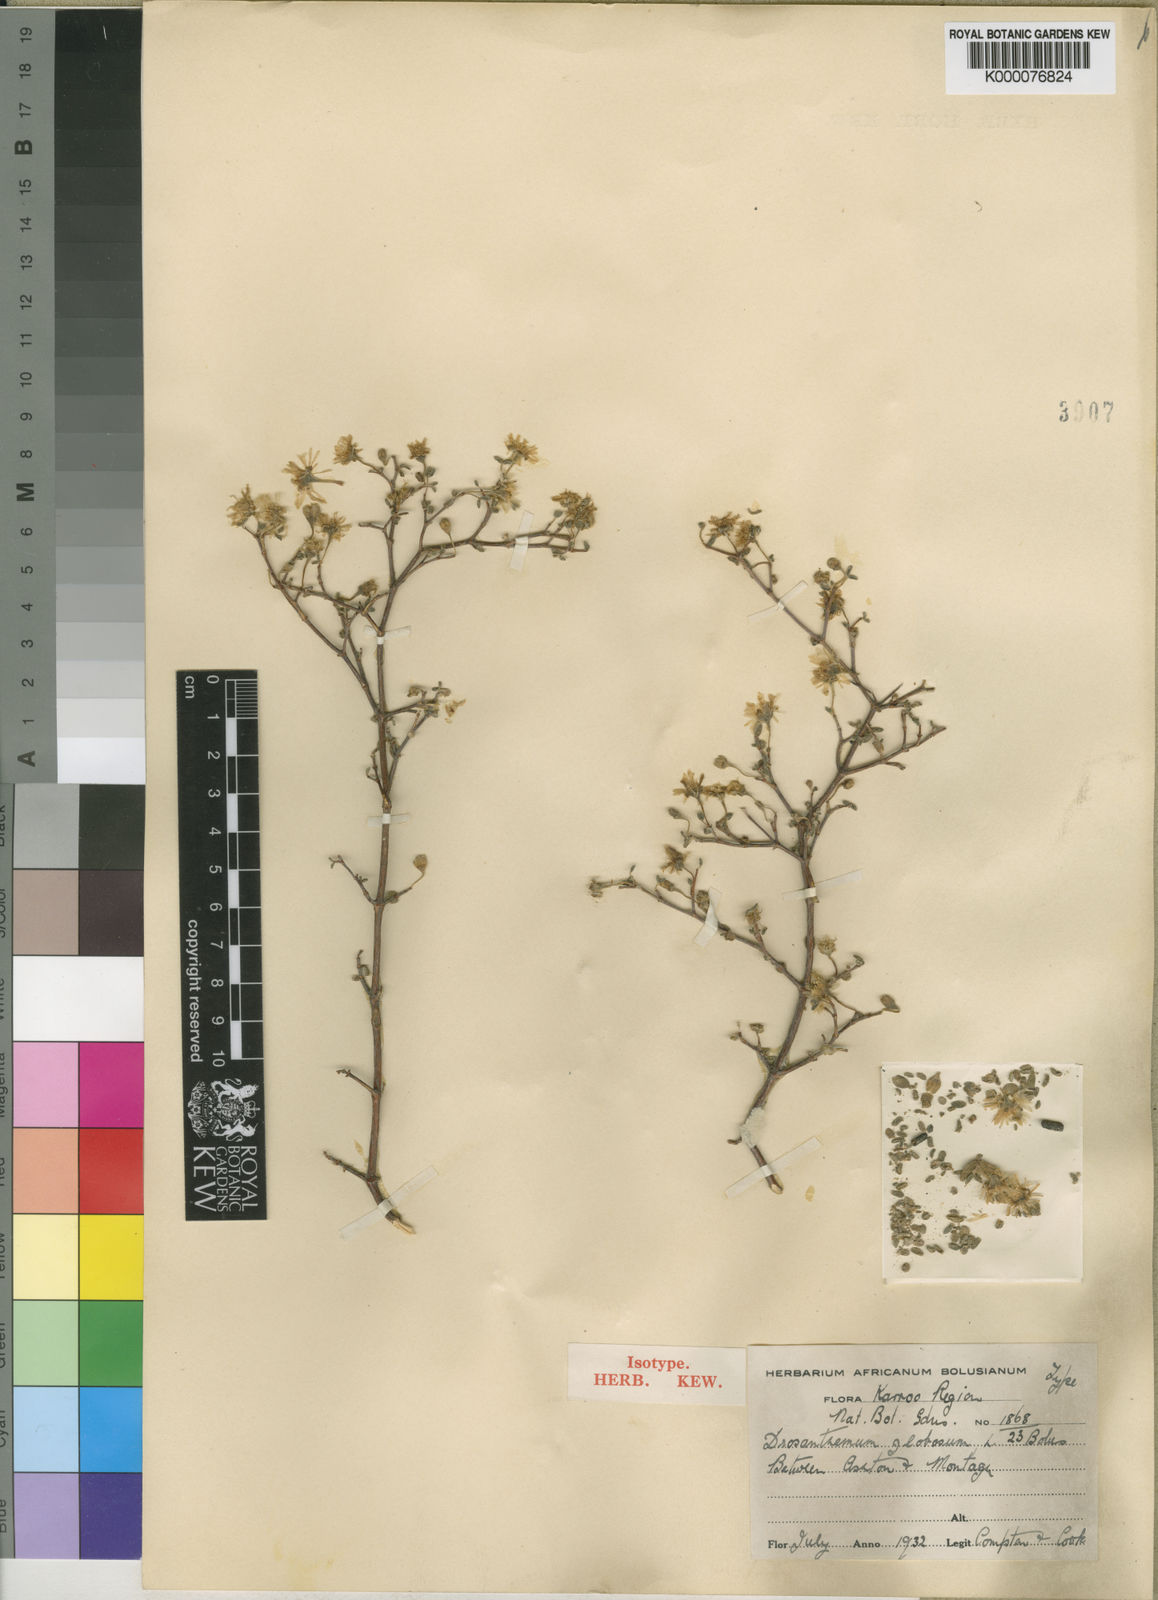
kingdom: Plantae
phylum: Tracheophyta
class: Magnoliopsida
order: Caryophyllales
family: Aizoaceae
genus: Drosanthemum
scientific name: Drosanthemum globosum
